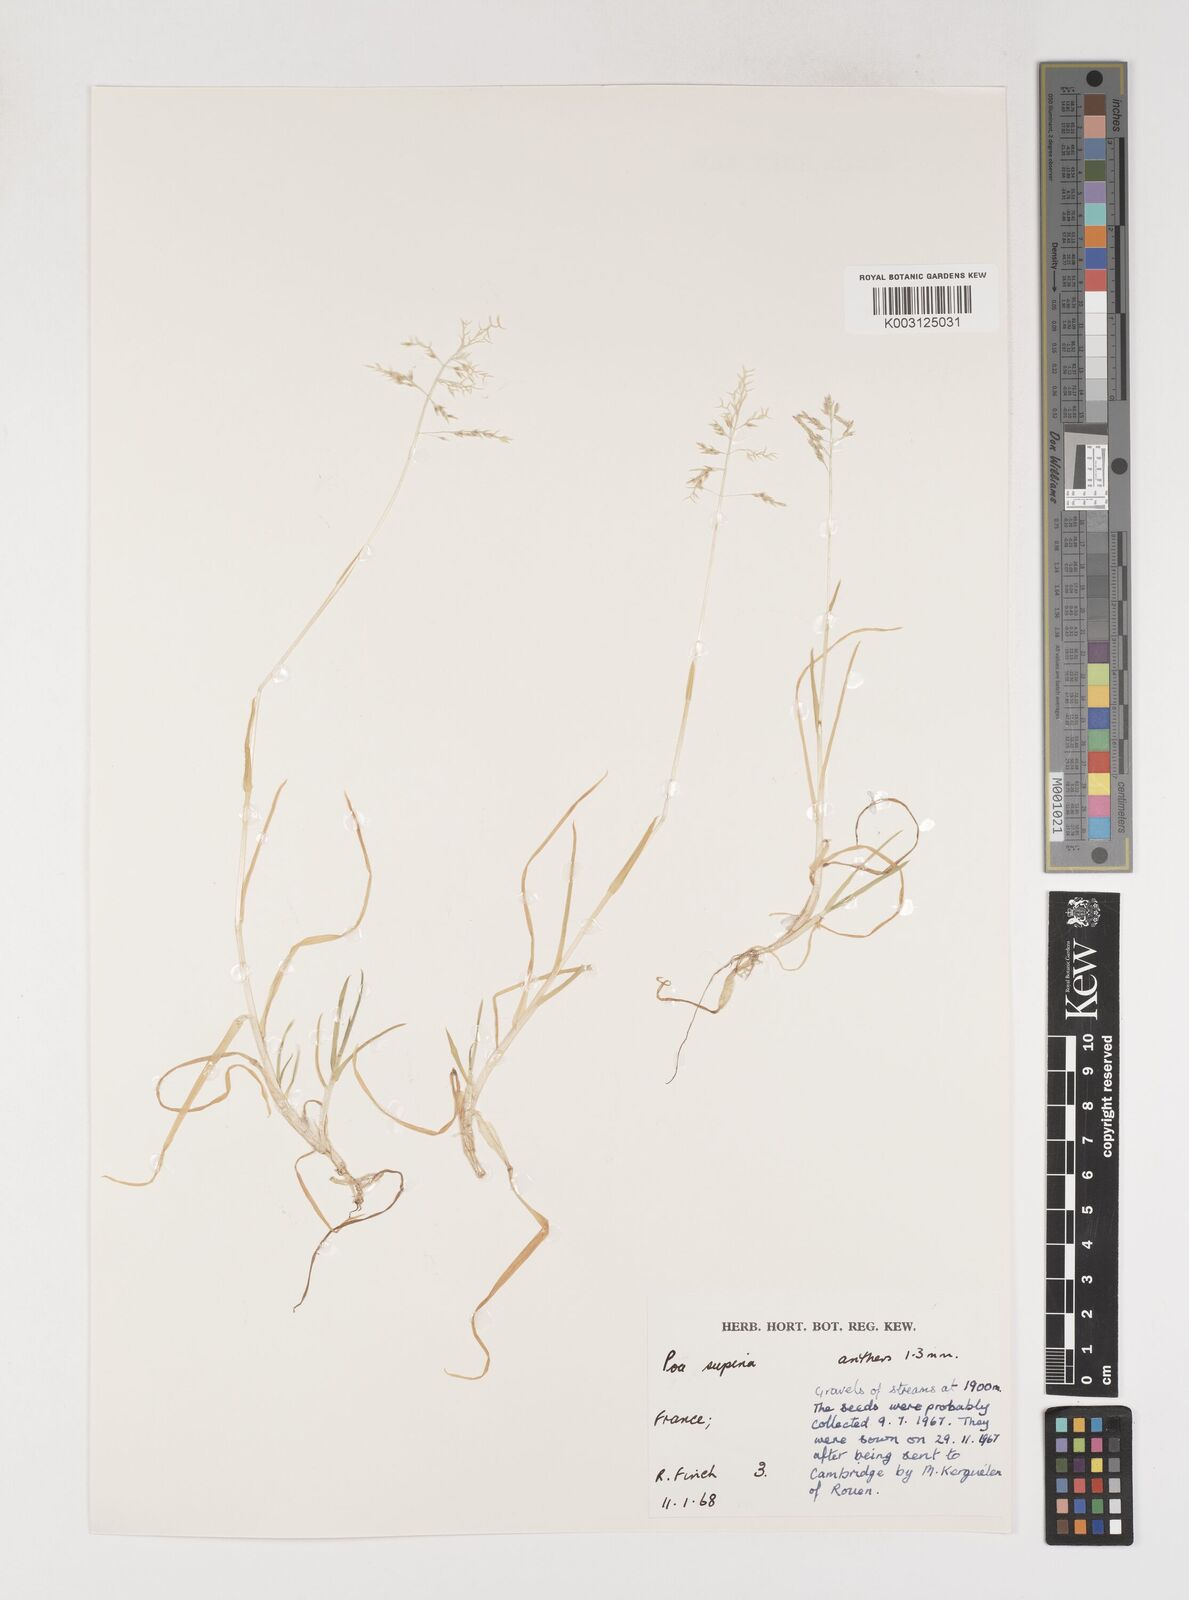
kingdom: Plantae
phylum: Tracheophyta
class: Liliopsida
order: Poales
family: Poaceae
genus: Poa
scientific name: Poa supina
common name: Supina bluegrass
